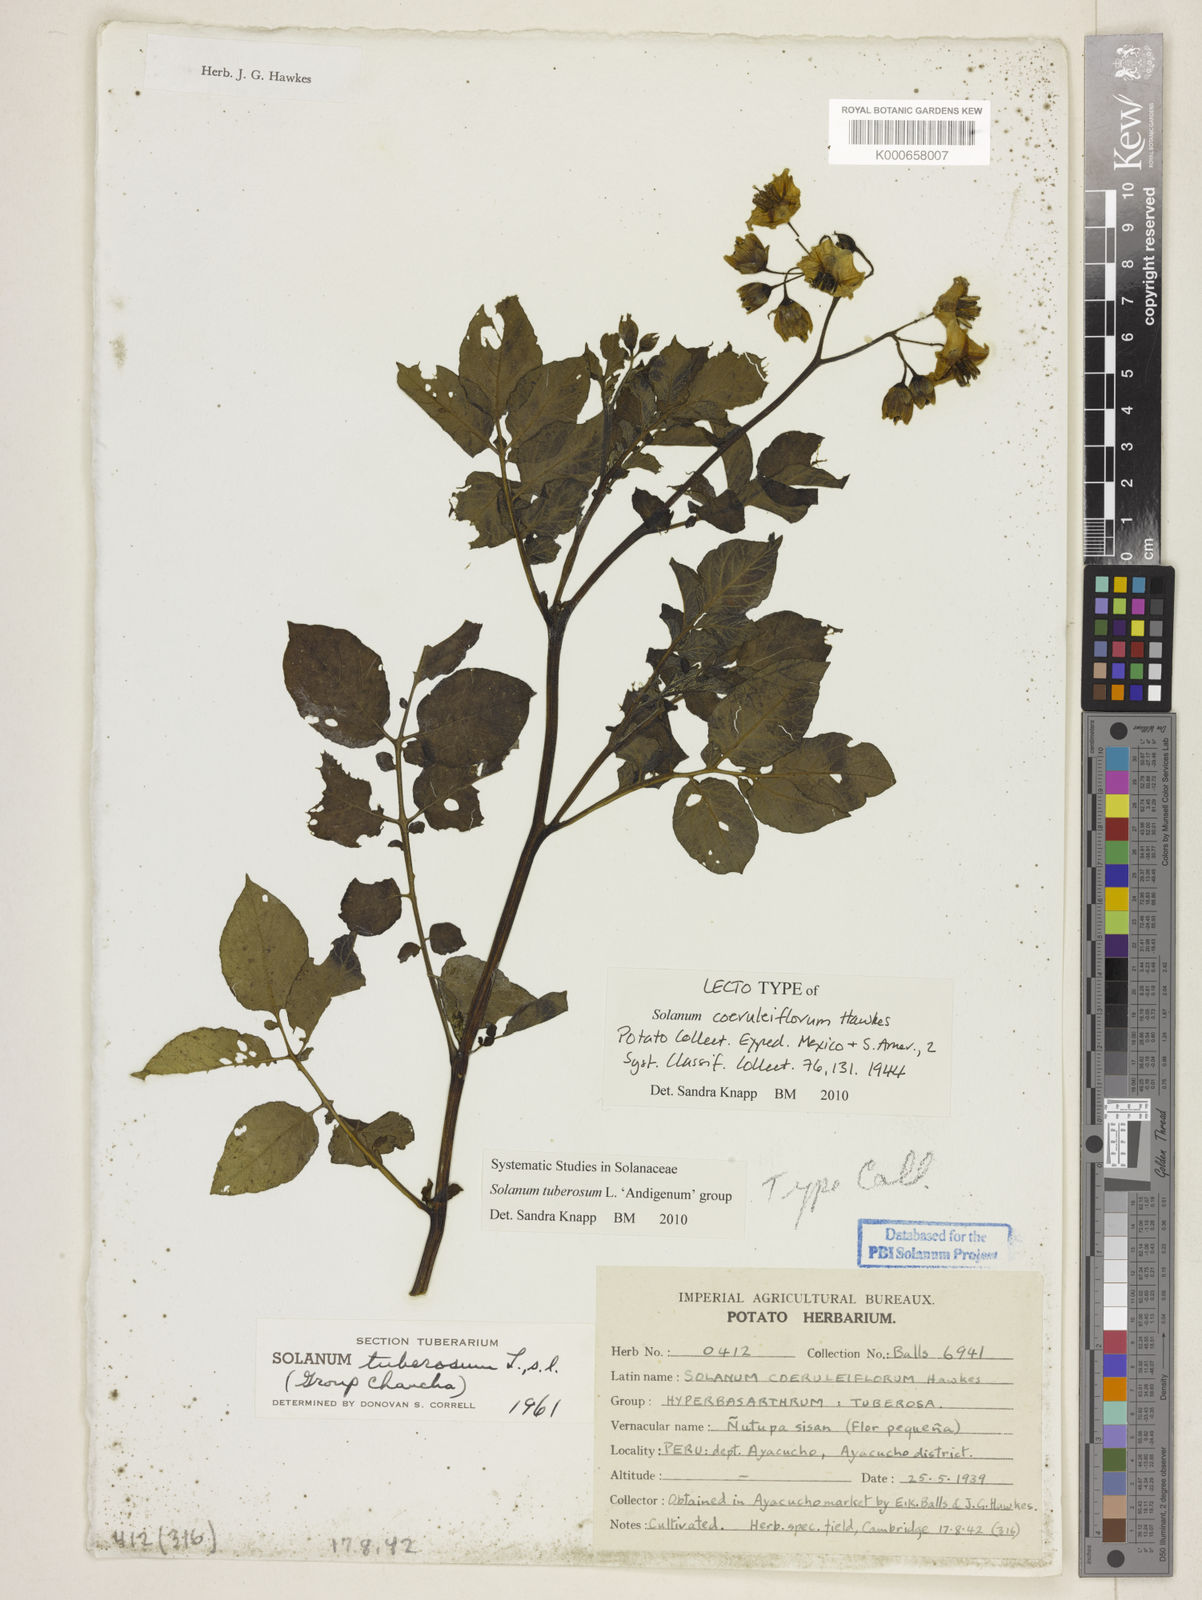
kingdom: Plantae
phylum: Tracheophyta
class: Magnoliopsida
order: Solanales
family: Solanaceae
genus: Solanum
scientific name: Solanum tuberosum
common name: Potato
